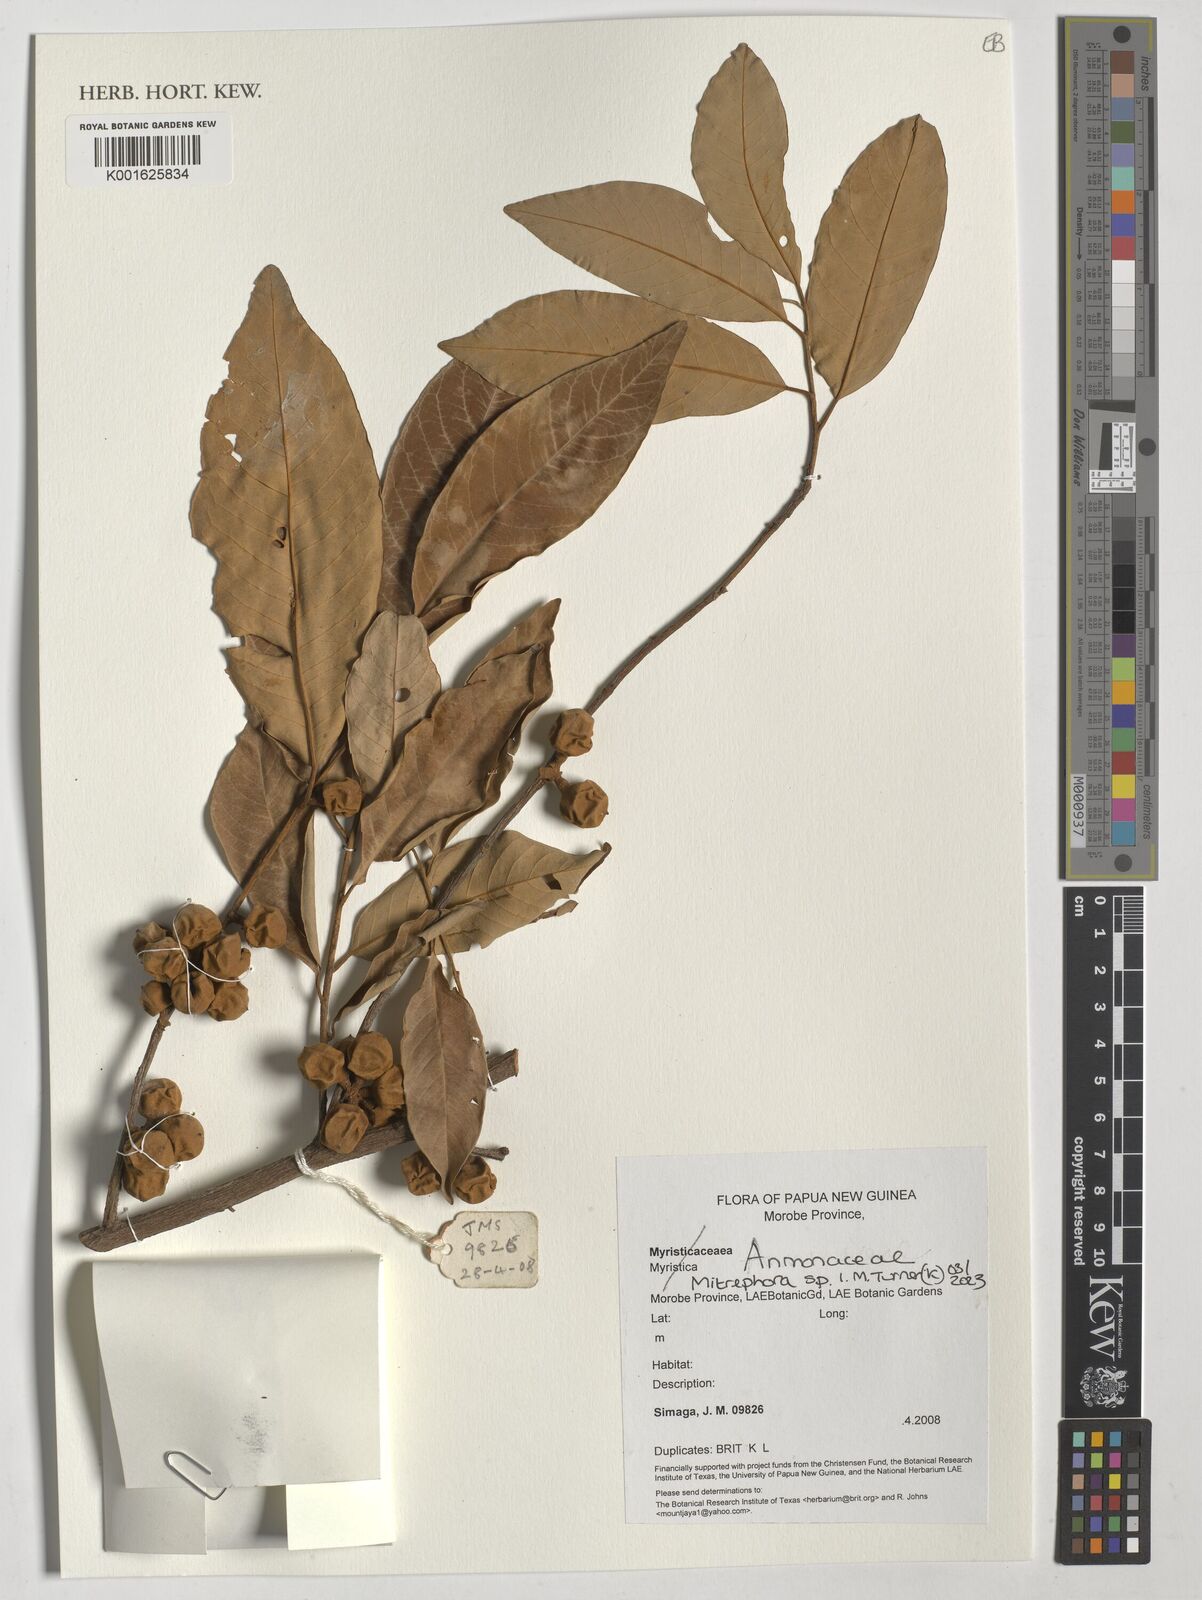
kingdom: Plantae
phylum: Tracheophyta
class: Magnoliopsida
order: Magnoliales
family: Annonaceae
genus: Mitrephora
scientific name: Mitrephora
